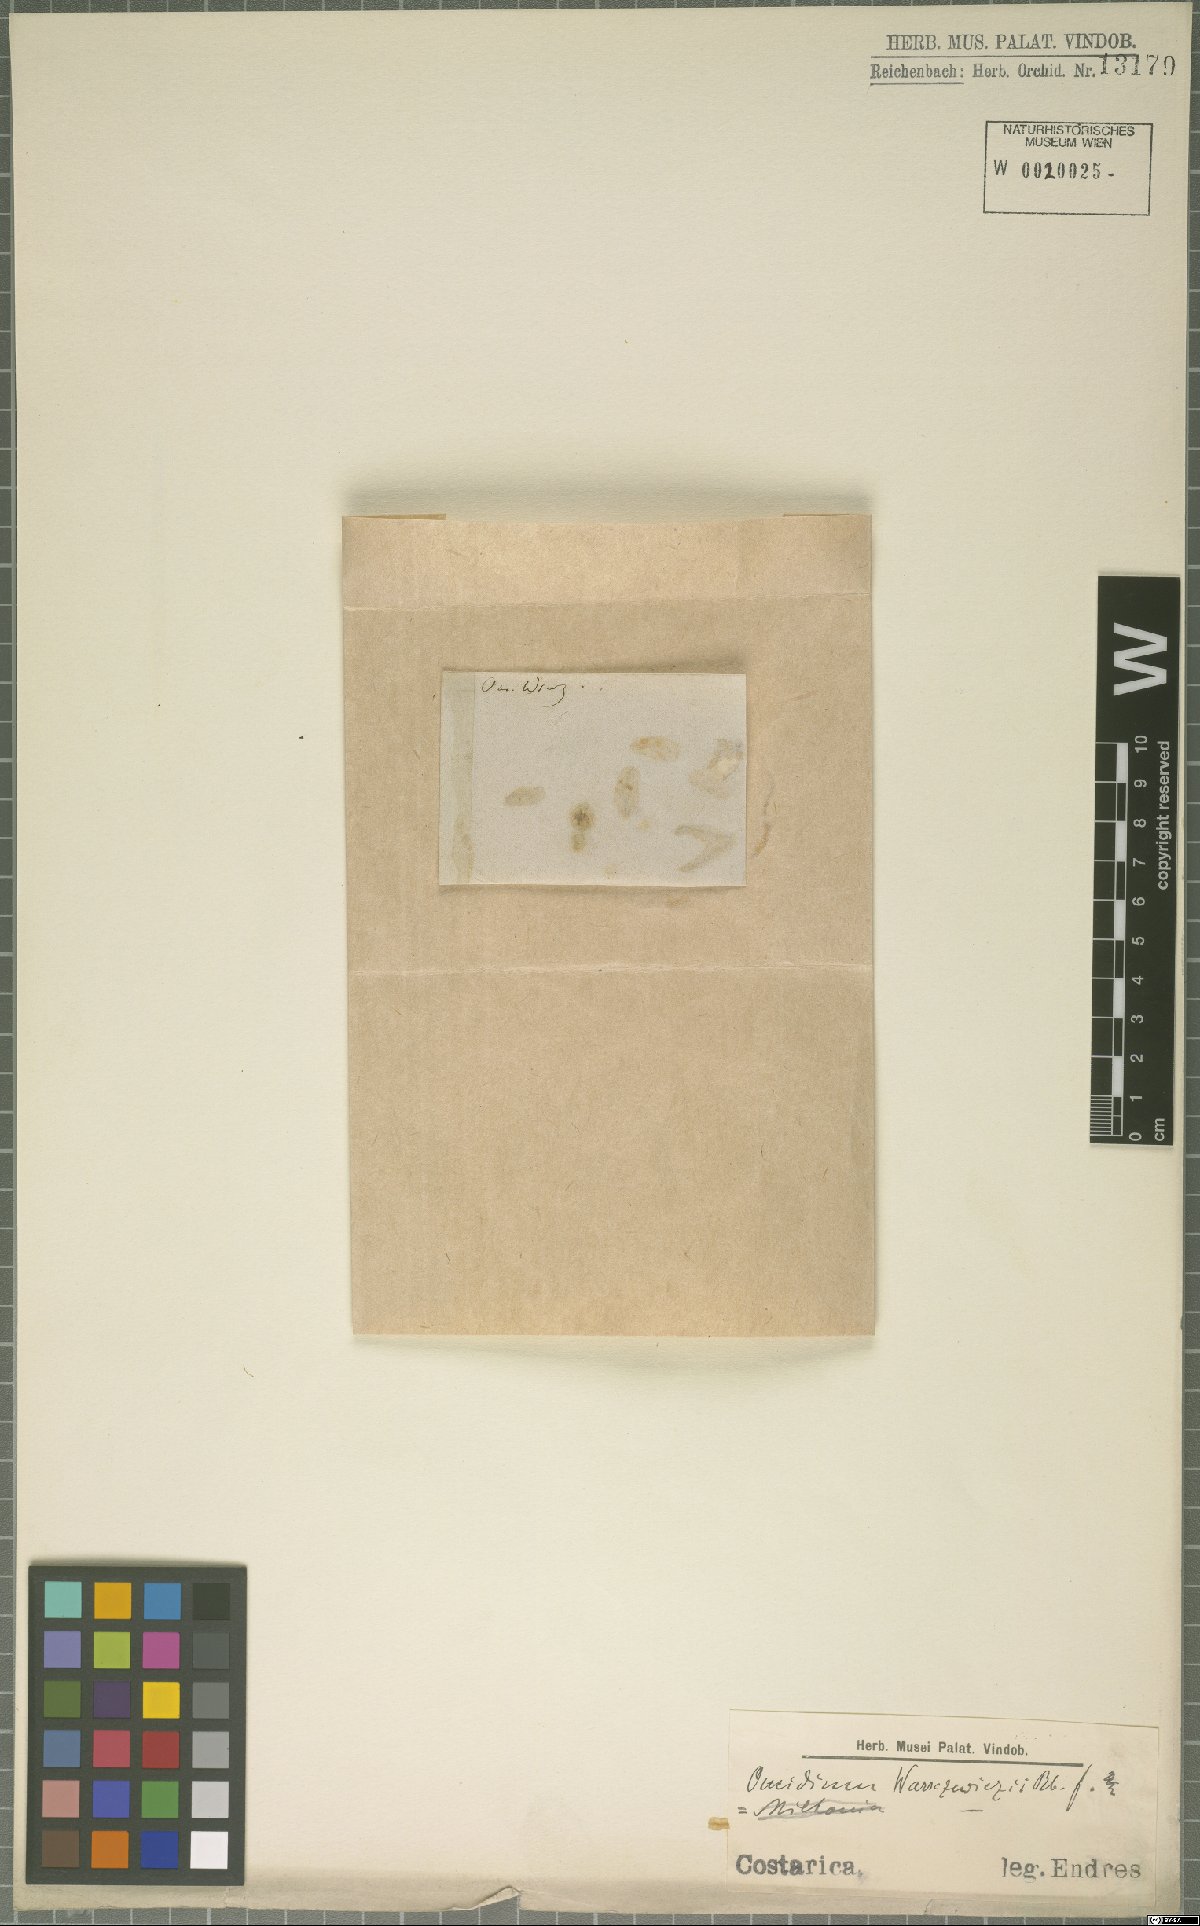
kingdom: Plantae
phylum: Tracheophyta
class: Liliopsida
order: Asparagales
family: Orchidaceae
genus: Oncidium
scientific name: Oncidium warszewiczii
